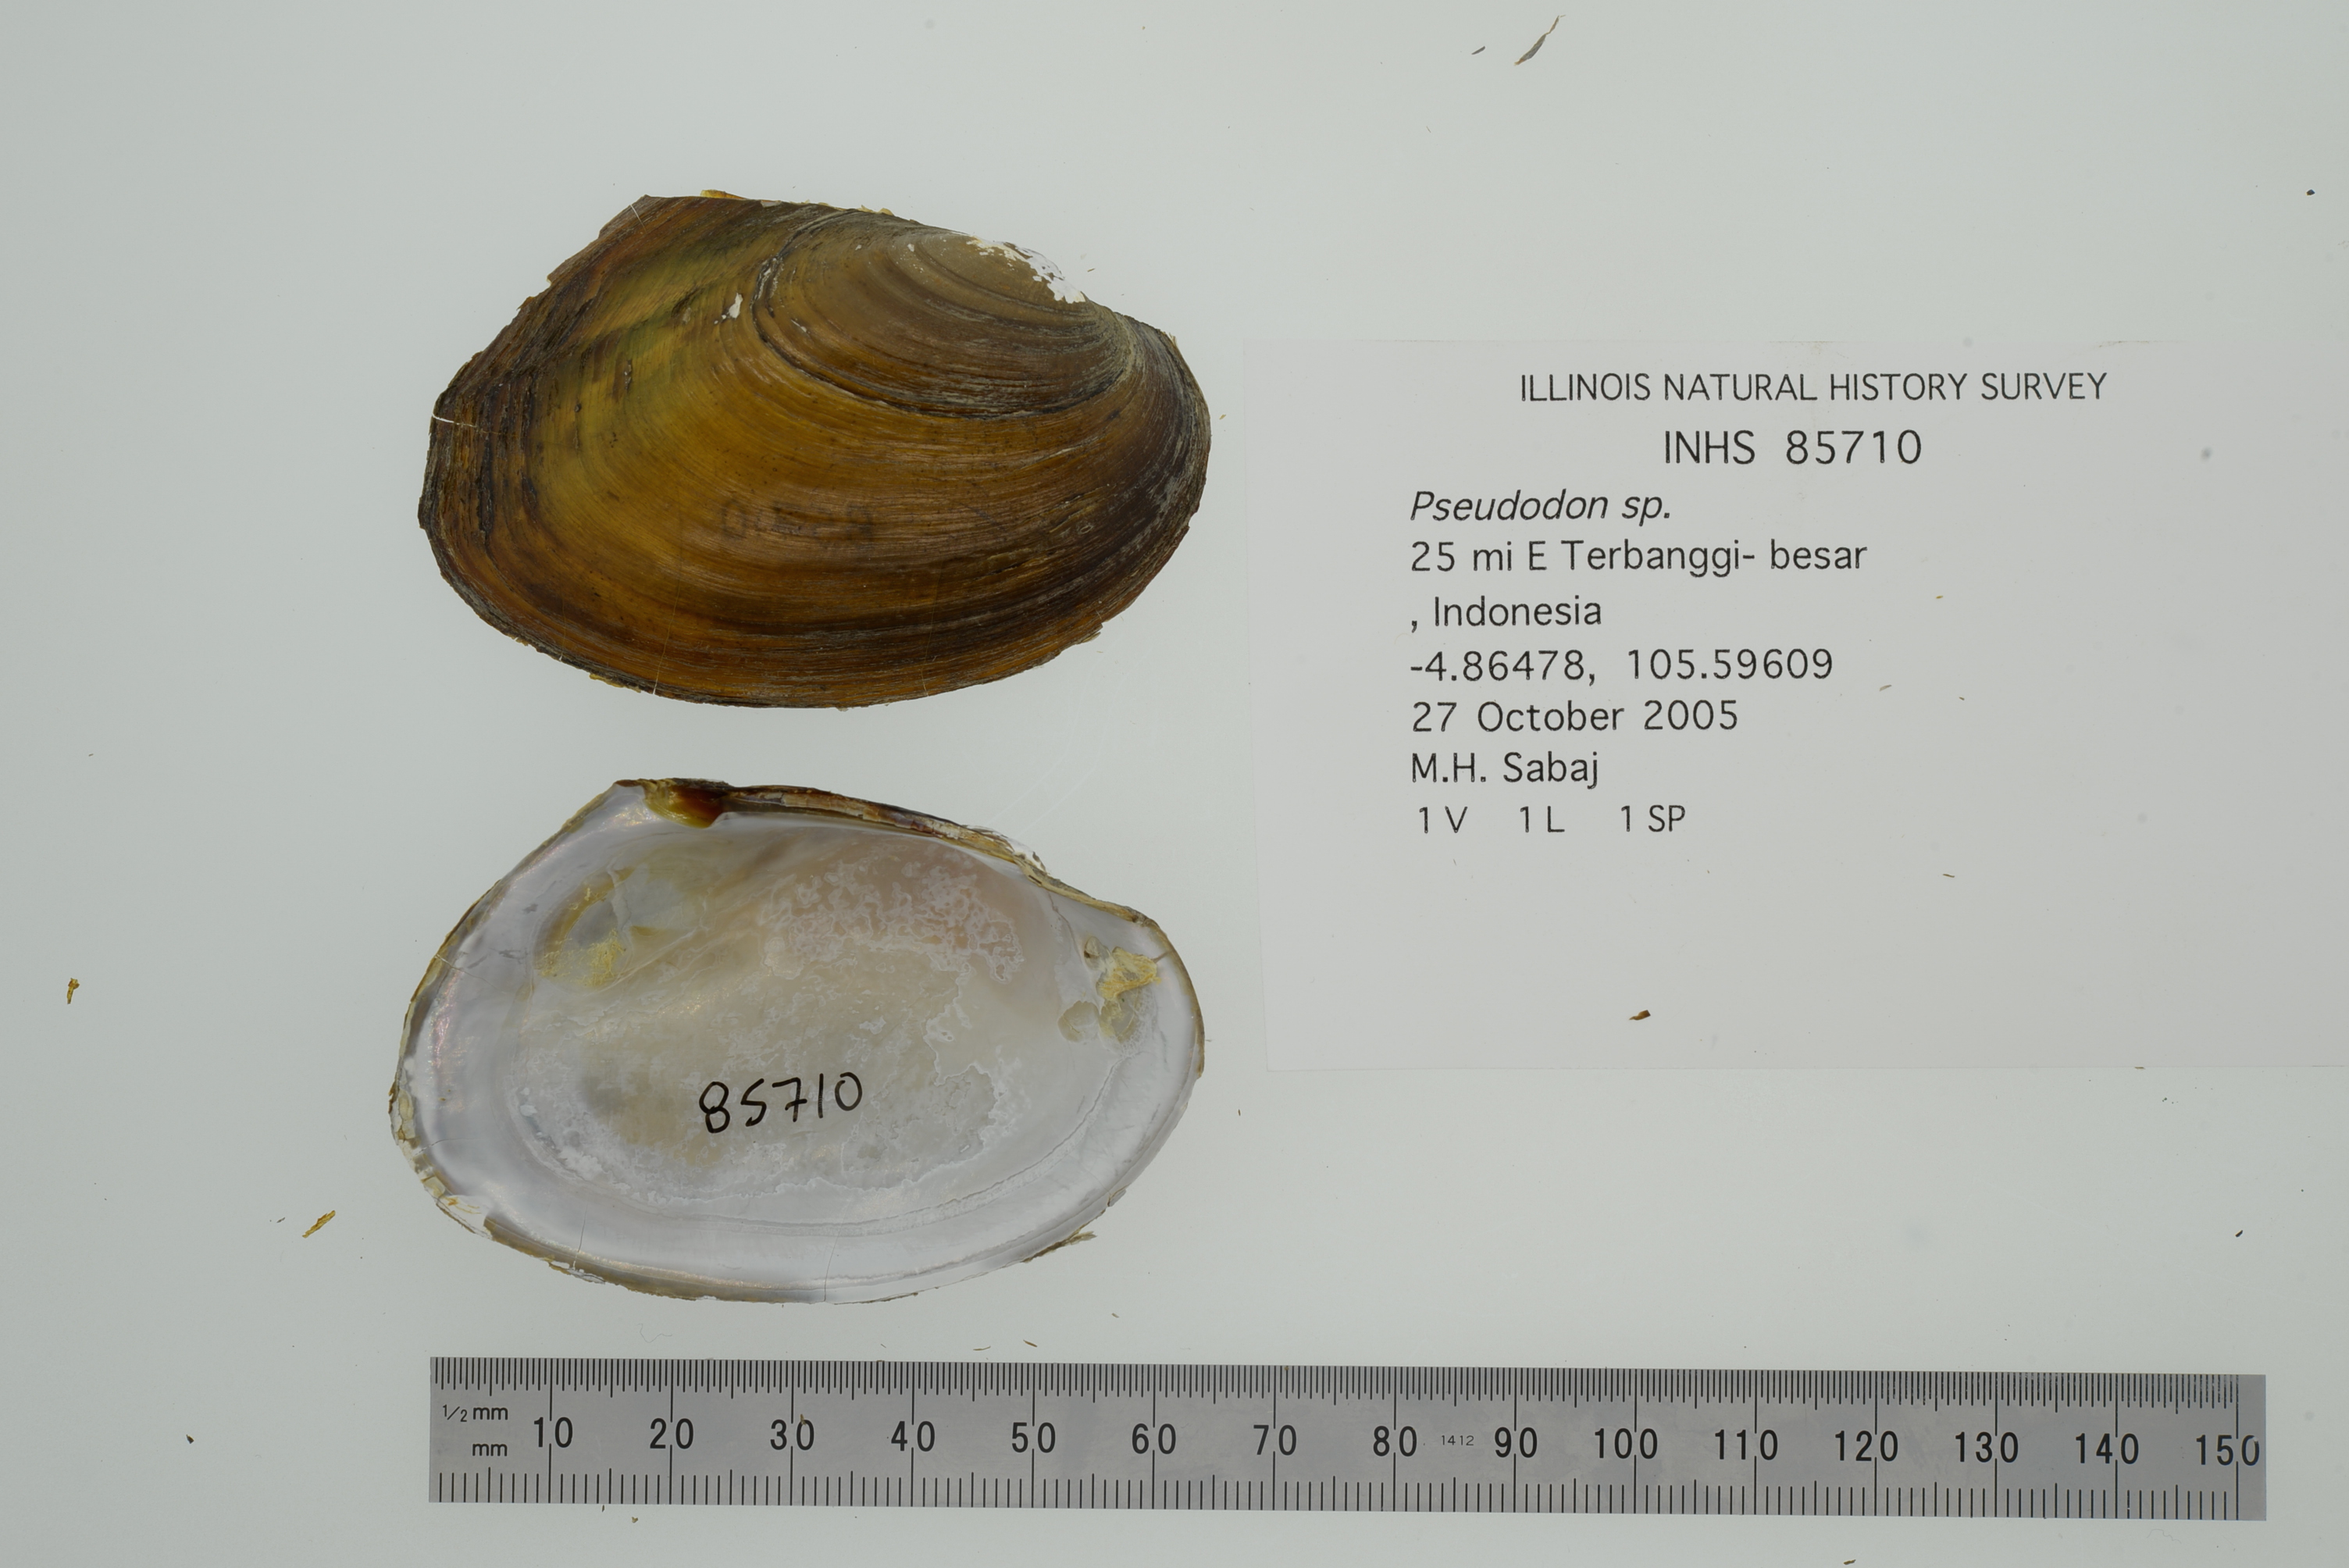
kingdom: Animalia
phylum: Mollusca
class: Bivalvia
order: Unionida
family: Unionidae
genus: Monodontina
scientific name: Monodontina vondembuschiana
